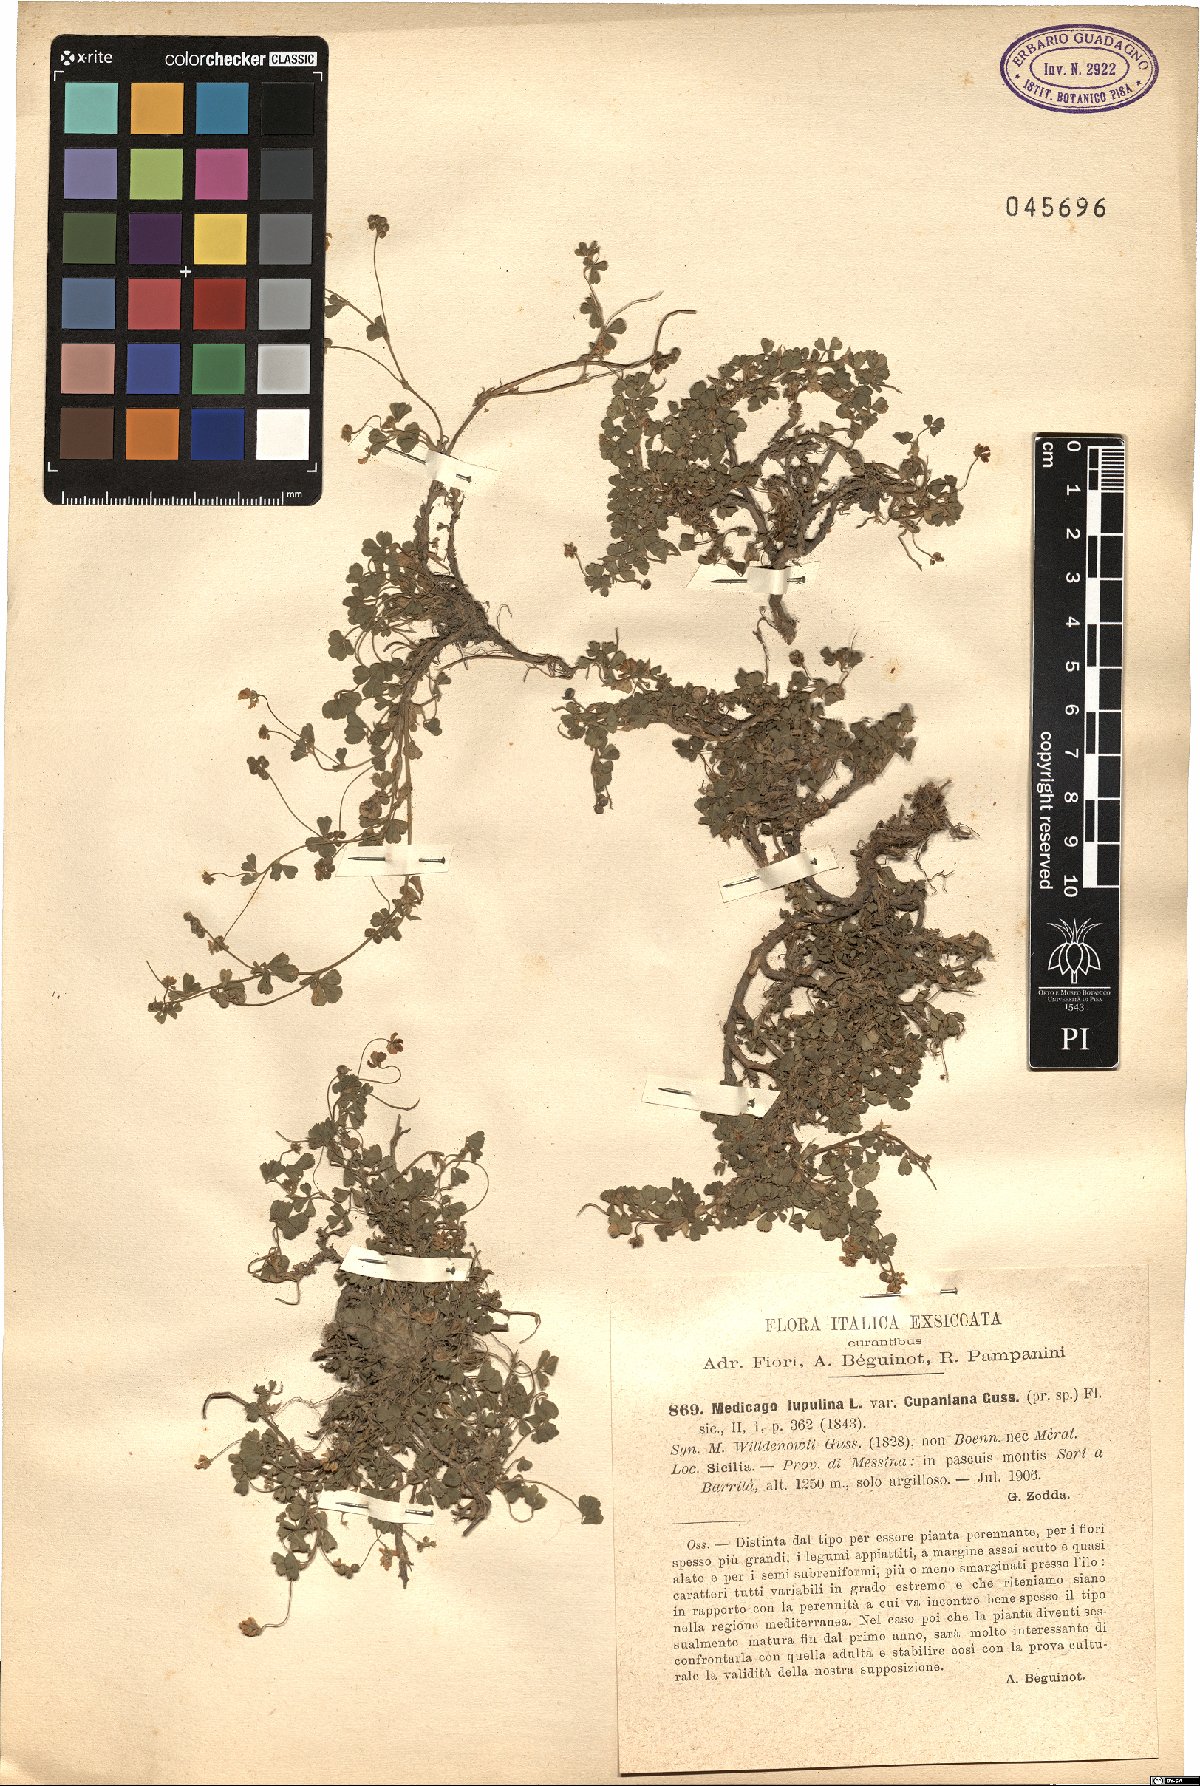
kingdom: Plantae
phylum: Tracheophyta
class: Magnoliopsida
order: Fabales
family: Fabaceae
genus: Medicago
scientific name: Medicago lupulina
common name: Black medick
